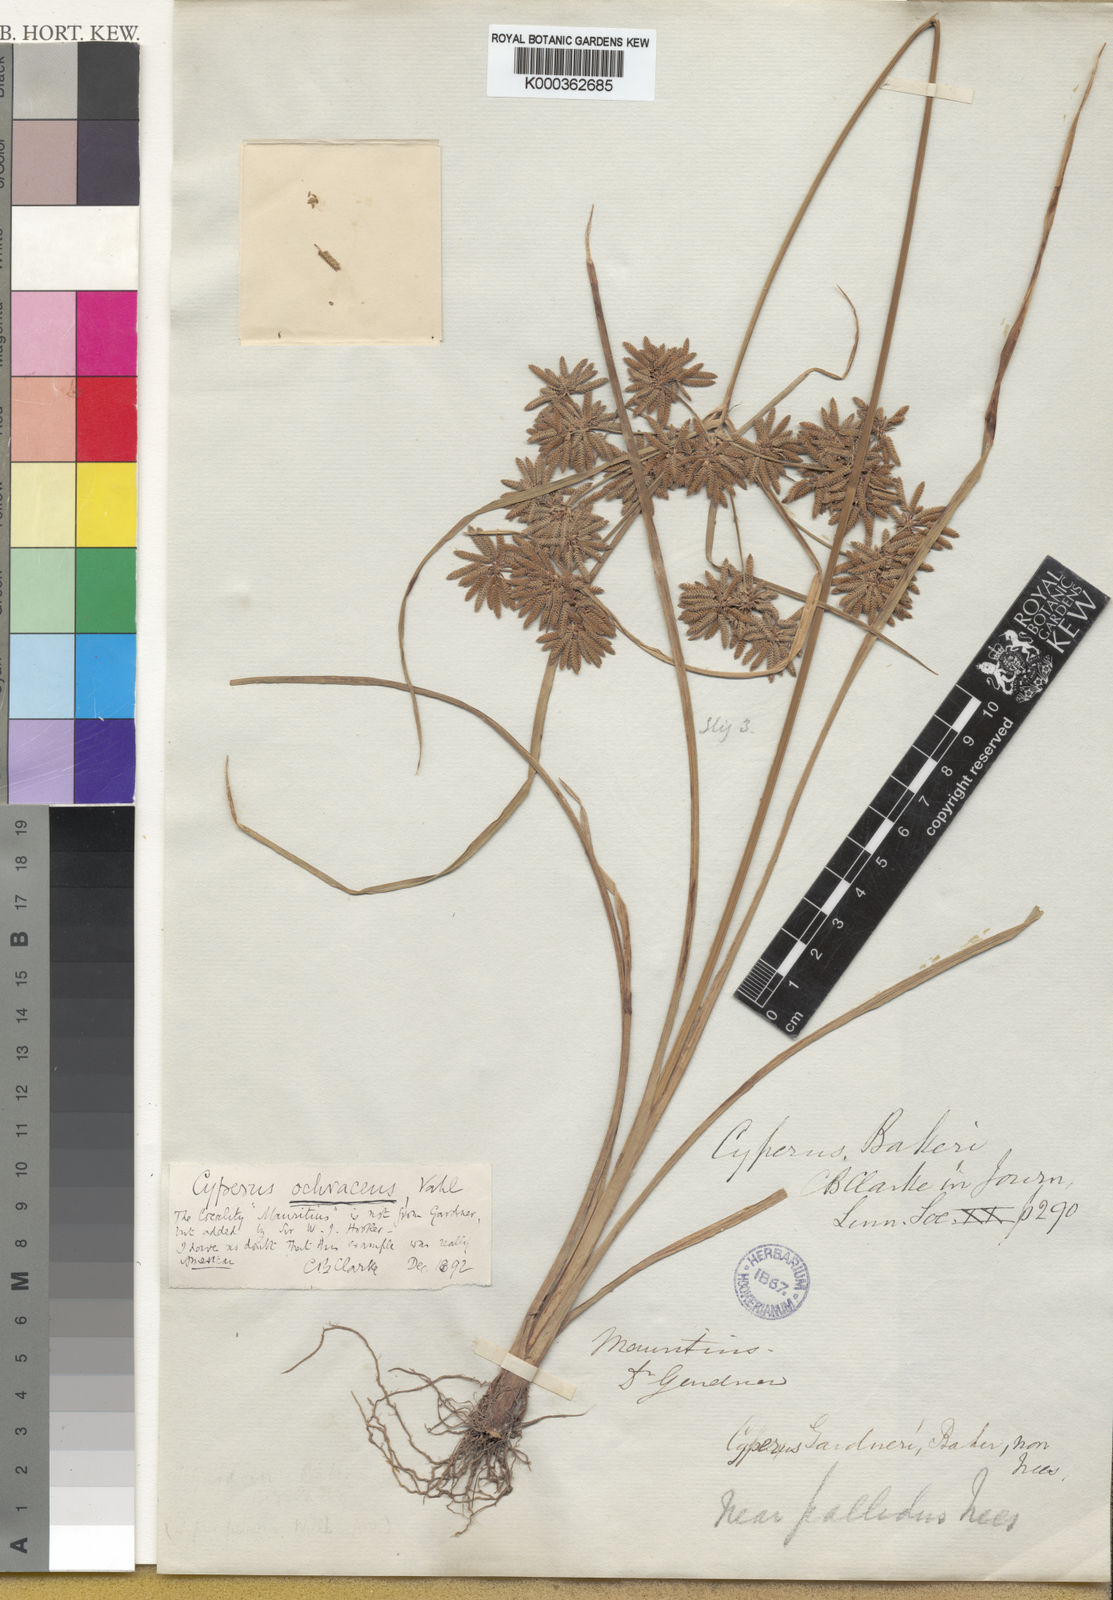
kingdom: Plantae
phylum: Tracheophyta
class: Liliopsida
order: Poales
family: Cyperaceae
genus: Cyperus
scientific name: Cyperus ochraceus
